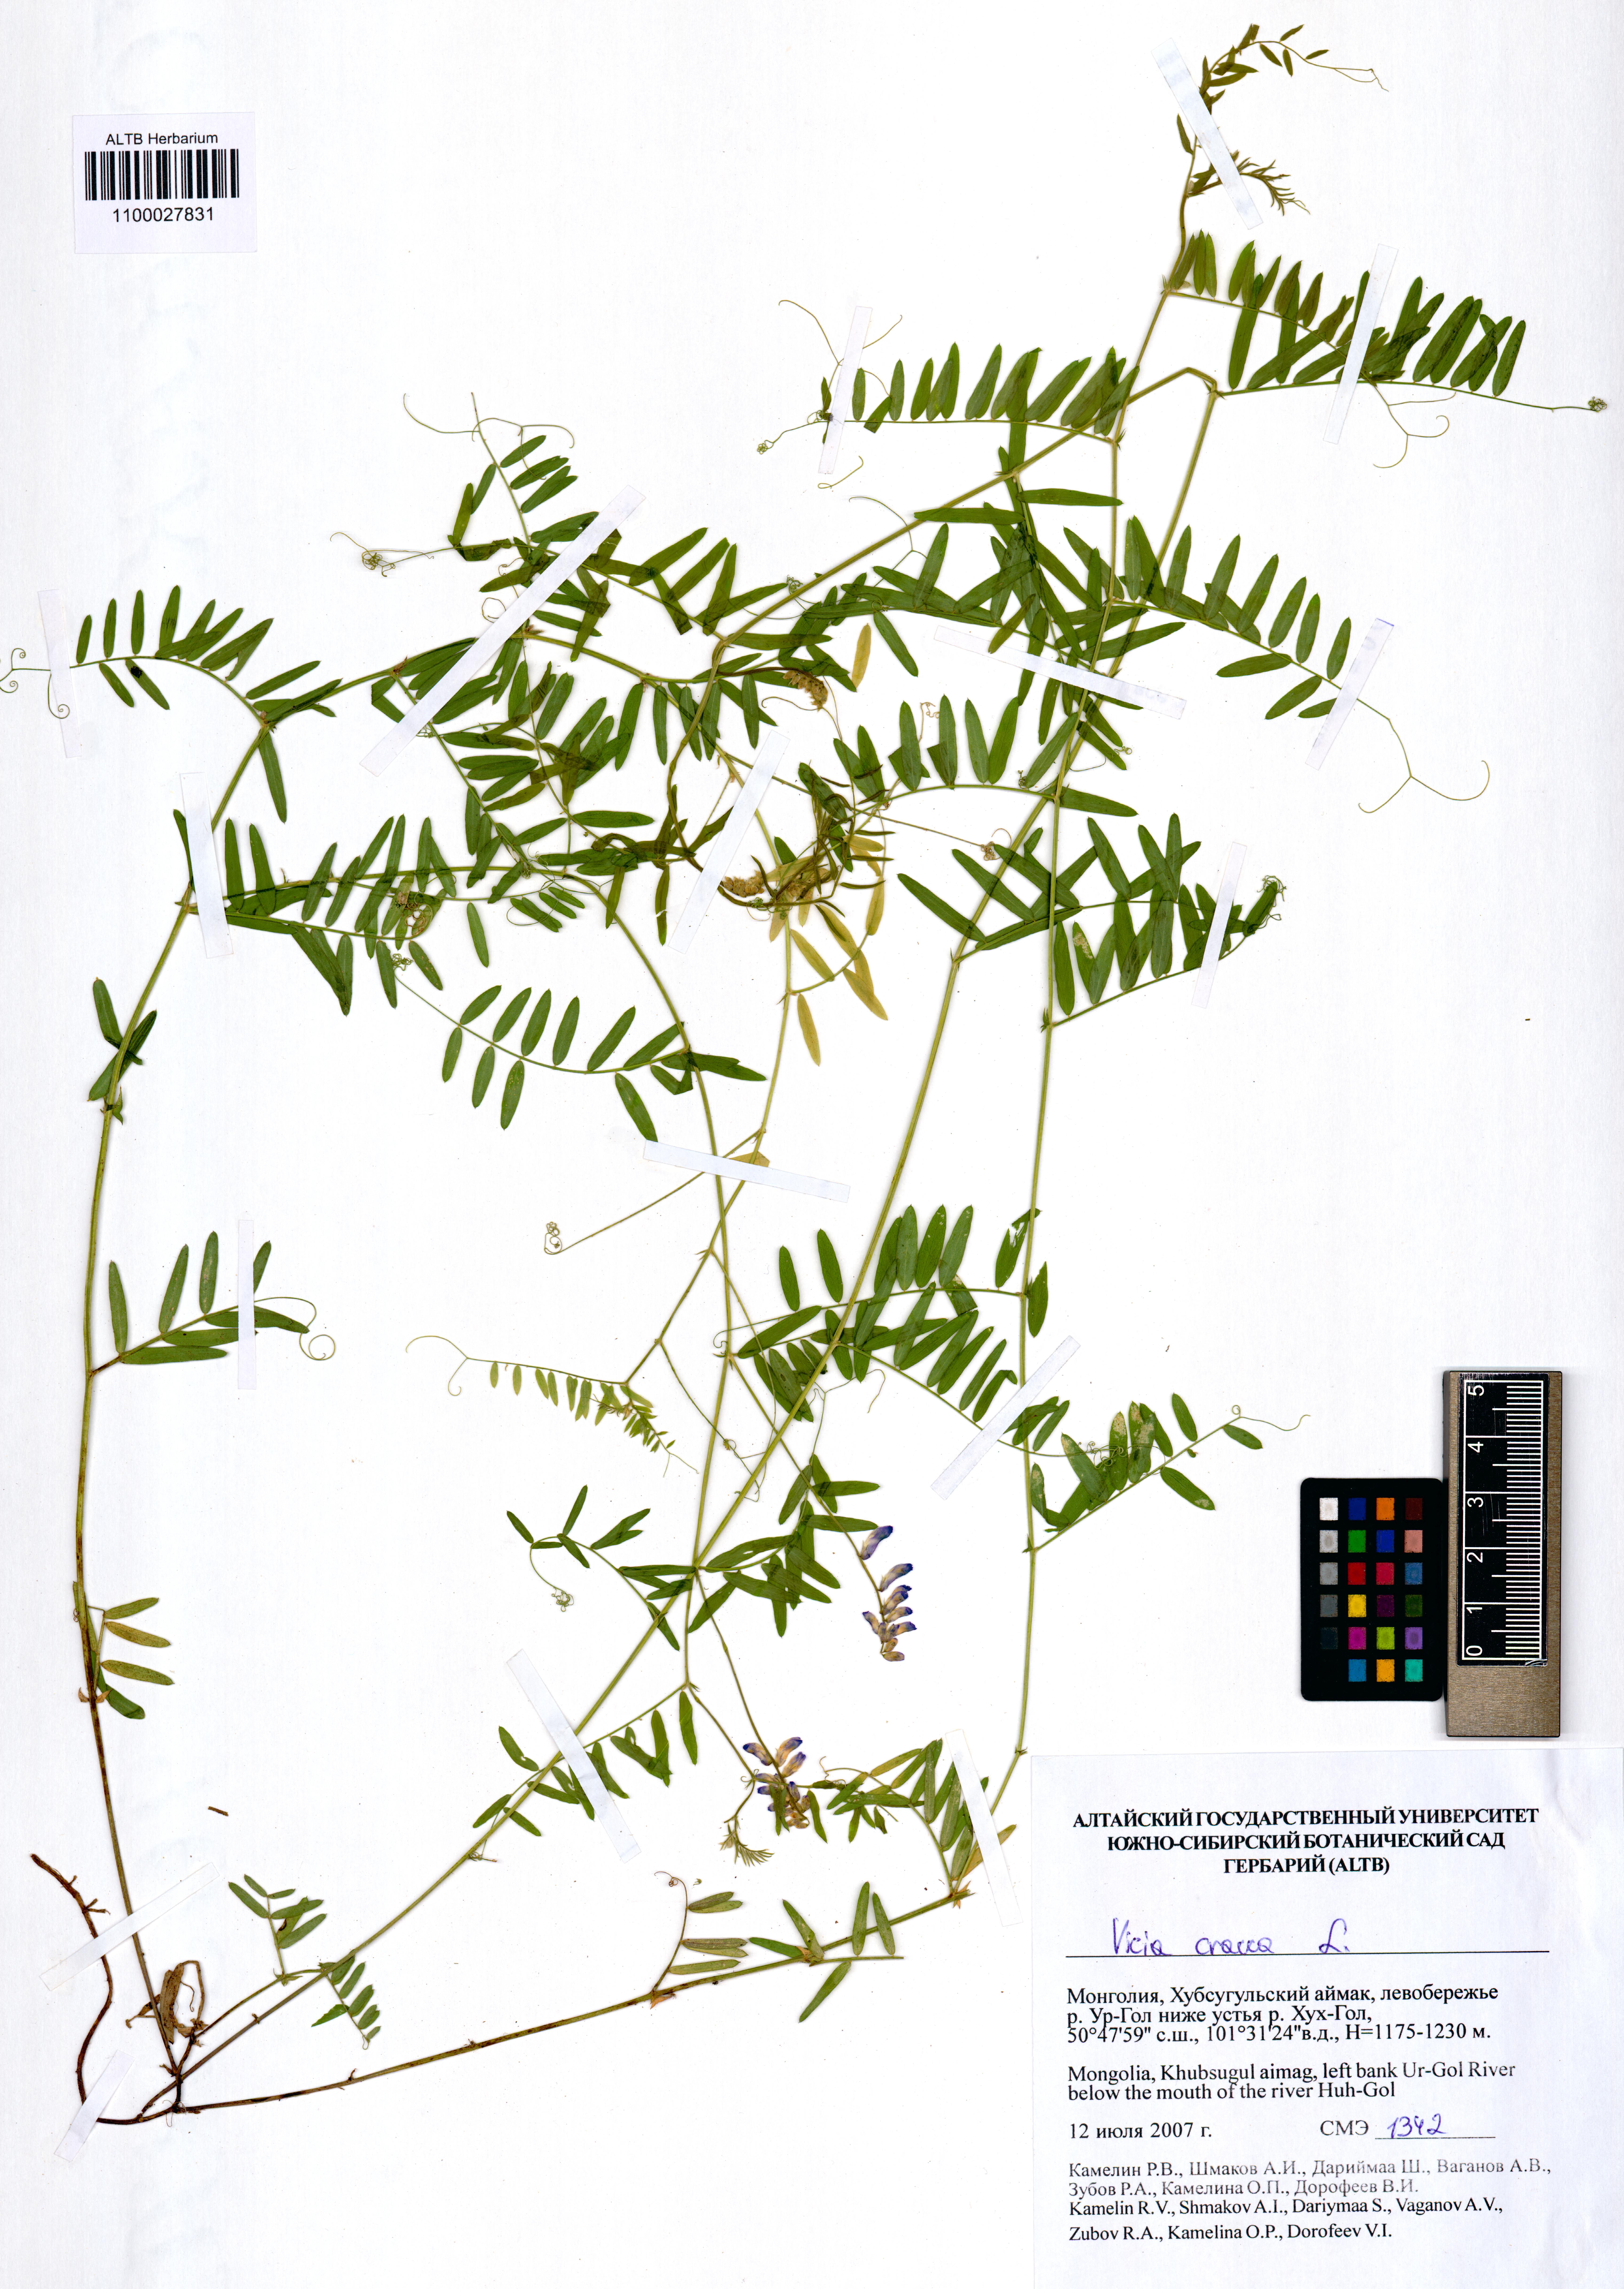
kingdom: Plantae
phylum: Tracheophyta
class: Magnoliopsida
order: Fabales
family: Fabaceae
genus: Vicia
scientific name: Vicia cracca
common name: Bird vetch
